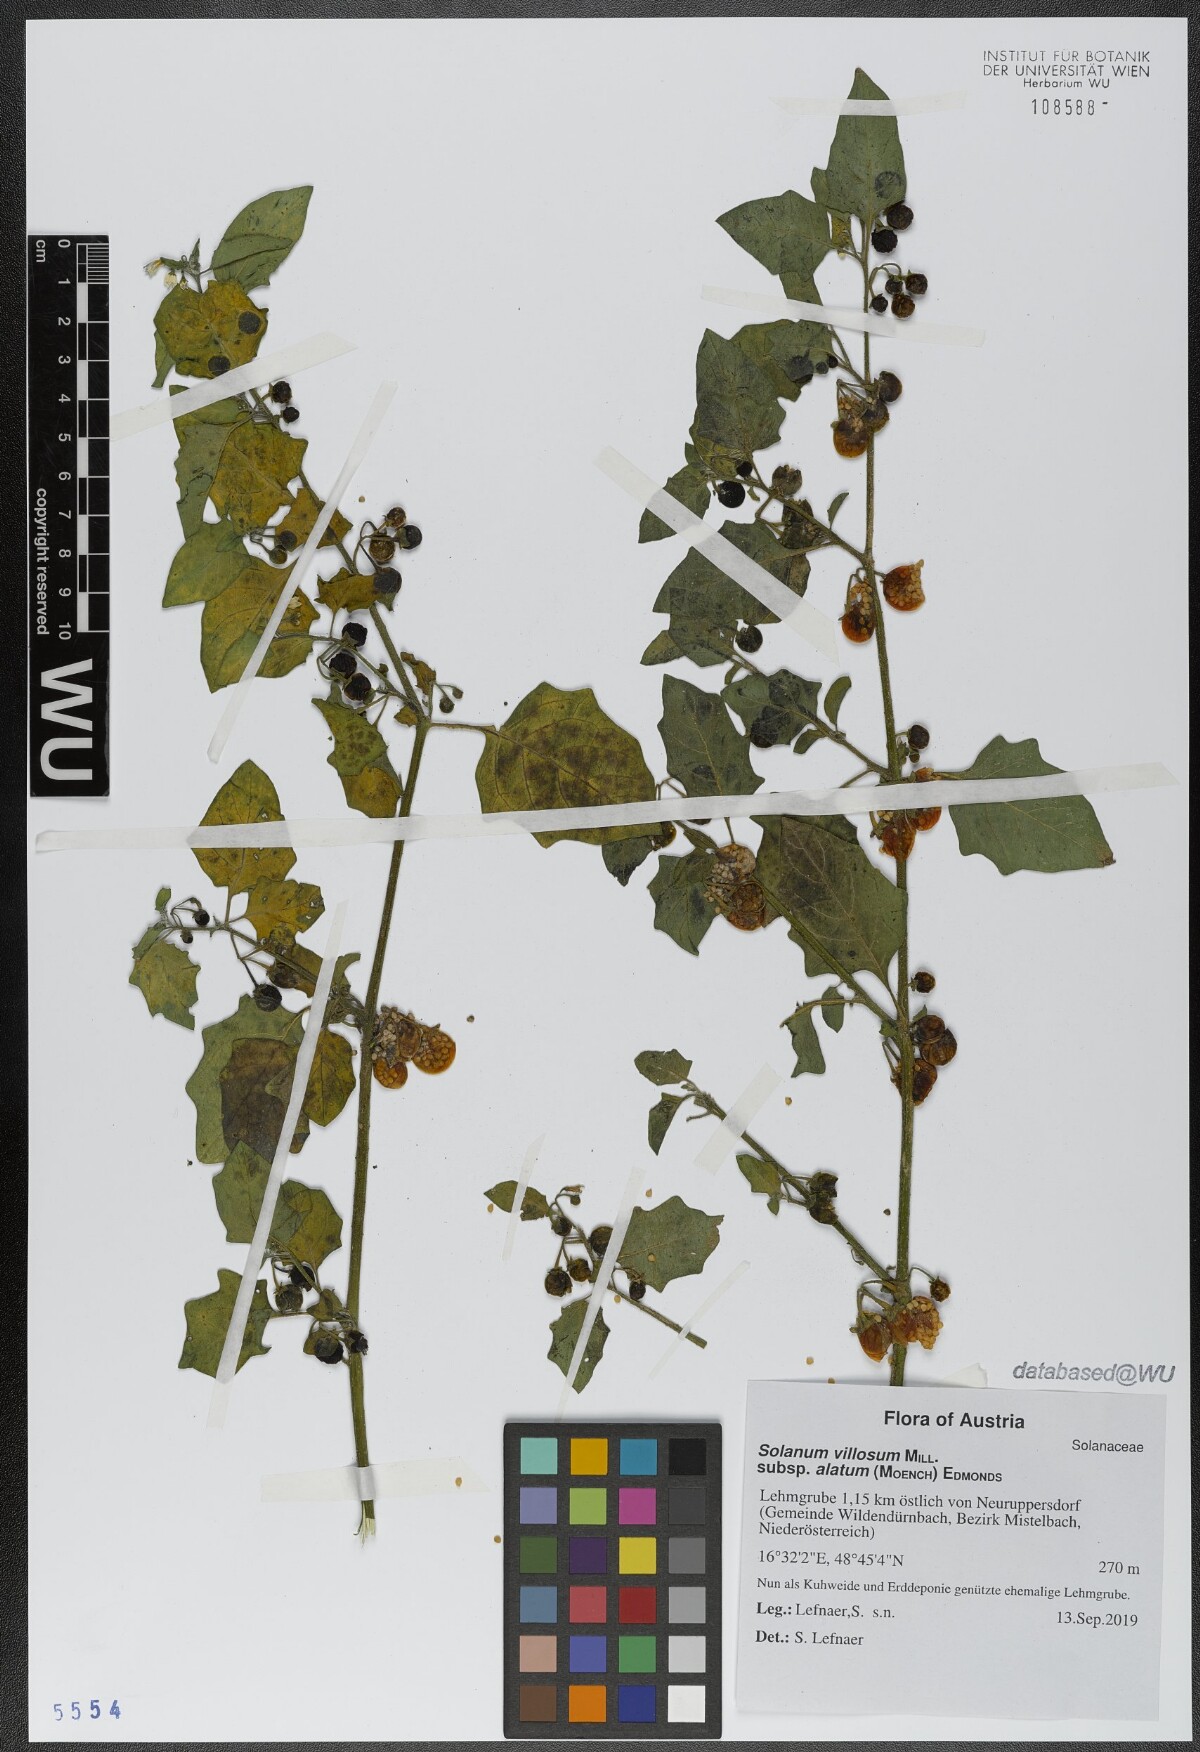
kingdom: Plantae
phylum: Tracheophyta
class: Magnoliopsida
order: Solanales
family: Solanaceae
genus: Solanum
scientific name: Solanum alatum
